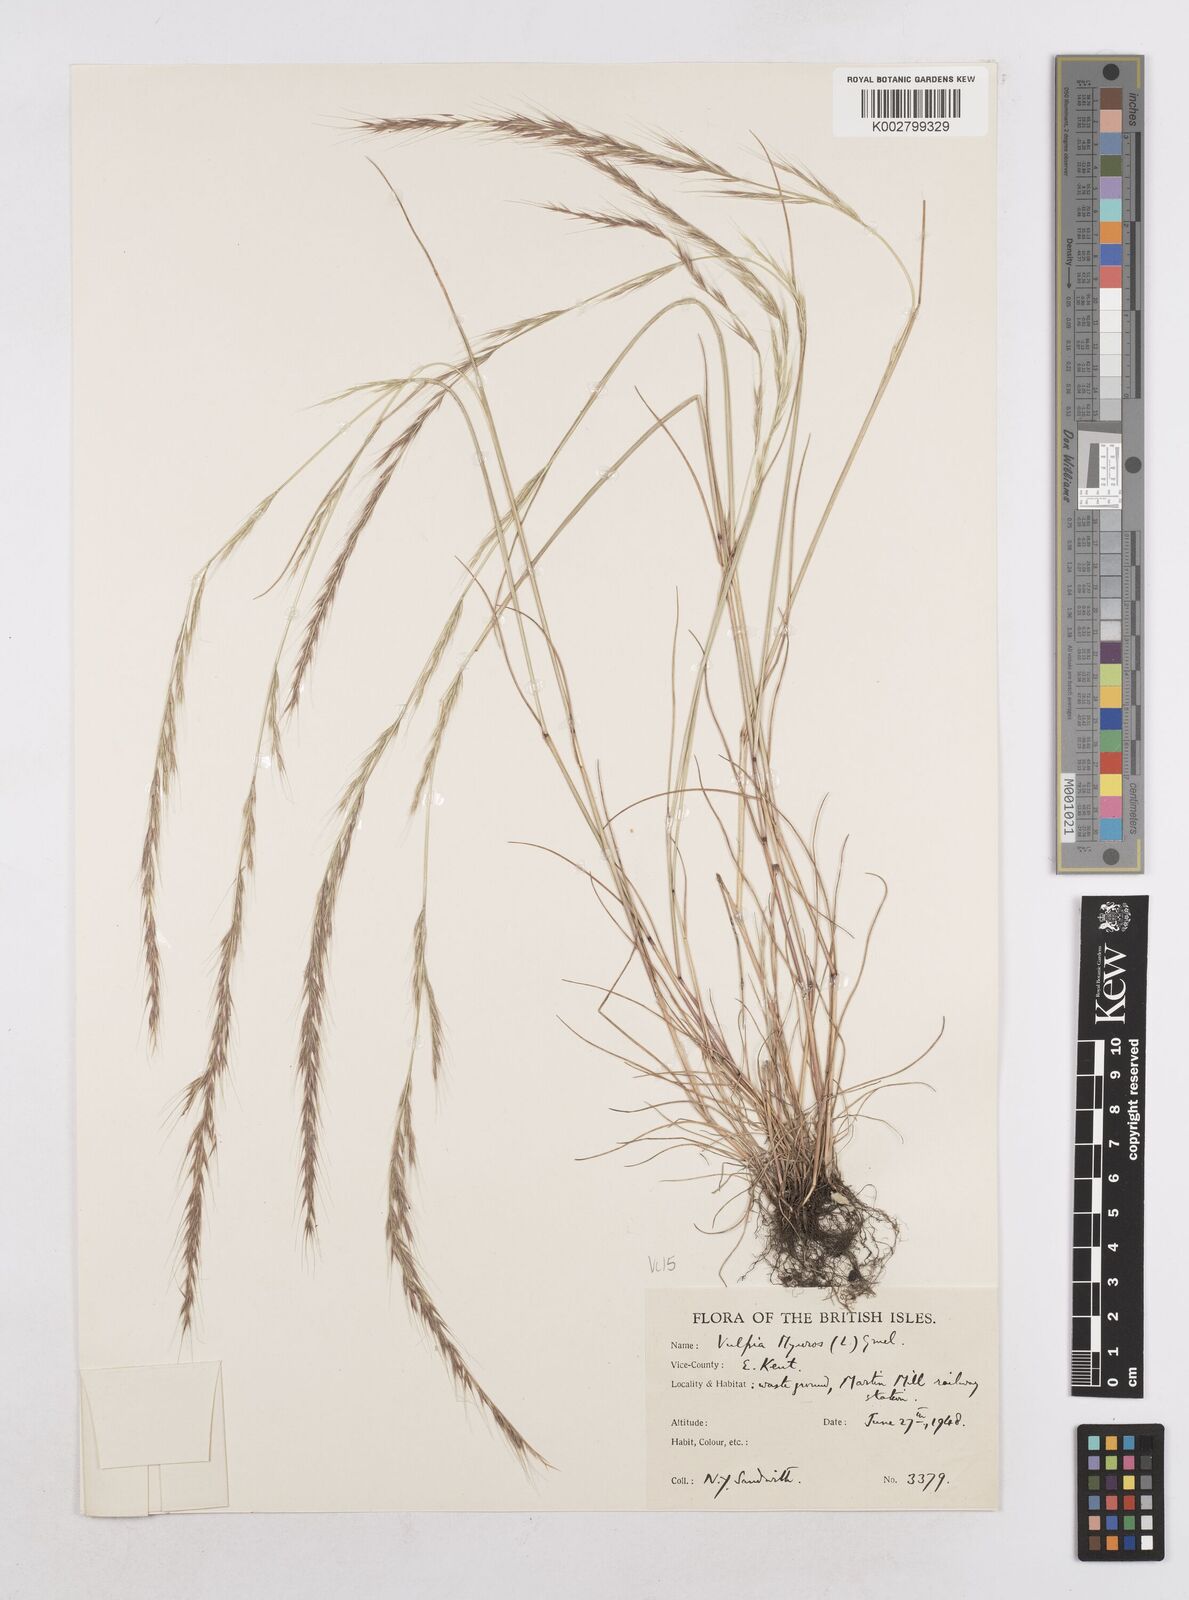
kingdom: Plantae
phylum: Tracheophyta
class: Liliopsida
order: Poales
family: Poaceae
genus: Festuca
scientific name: Festuca myuros
